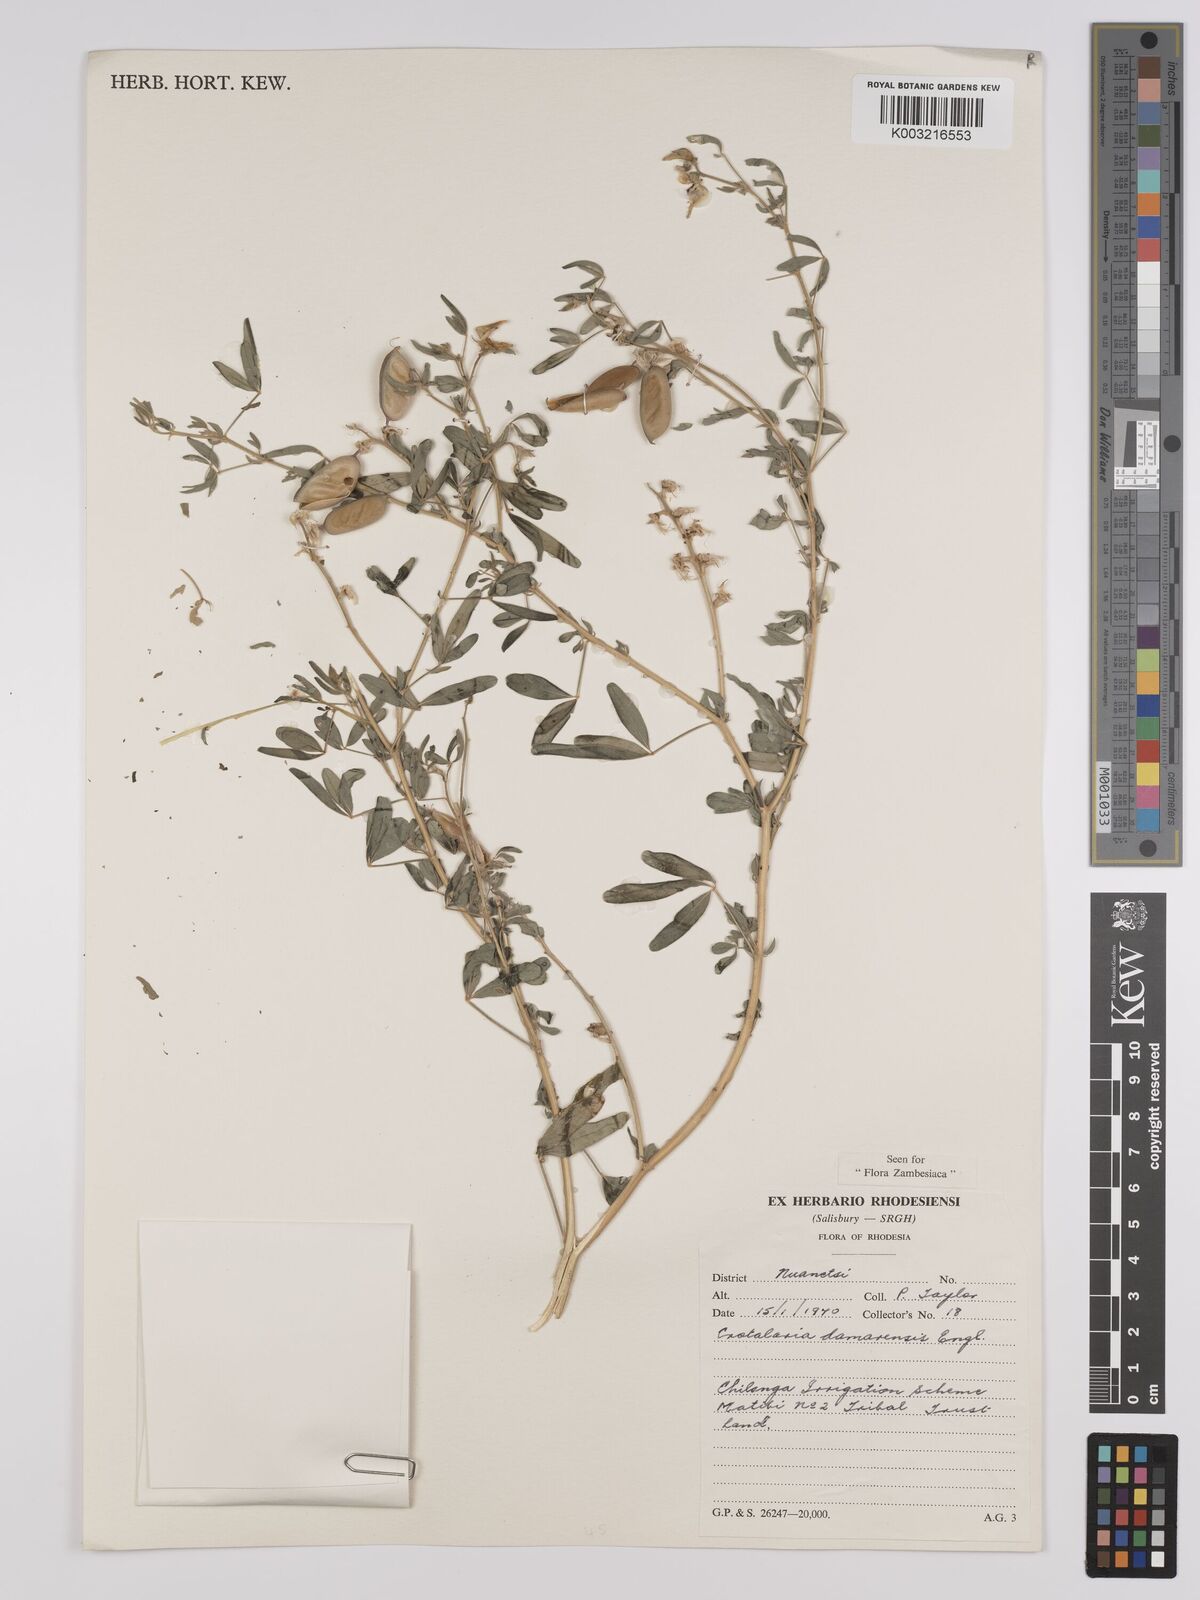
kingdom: Plantae
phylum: Tracheophyta
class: Magnoliopsida
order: Fabales
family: Fabaceae
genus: Crotalaria
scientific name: Crotalaria damarensis
